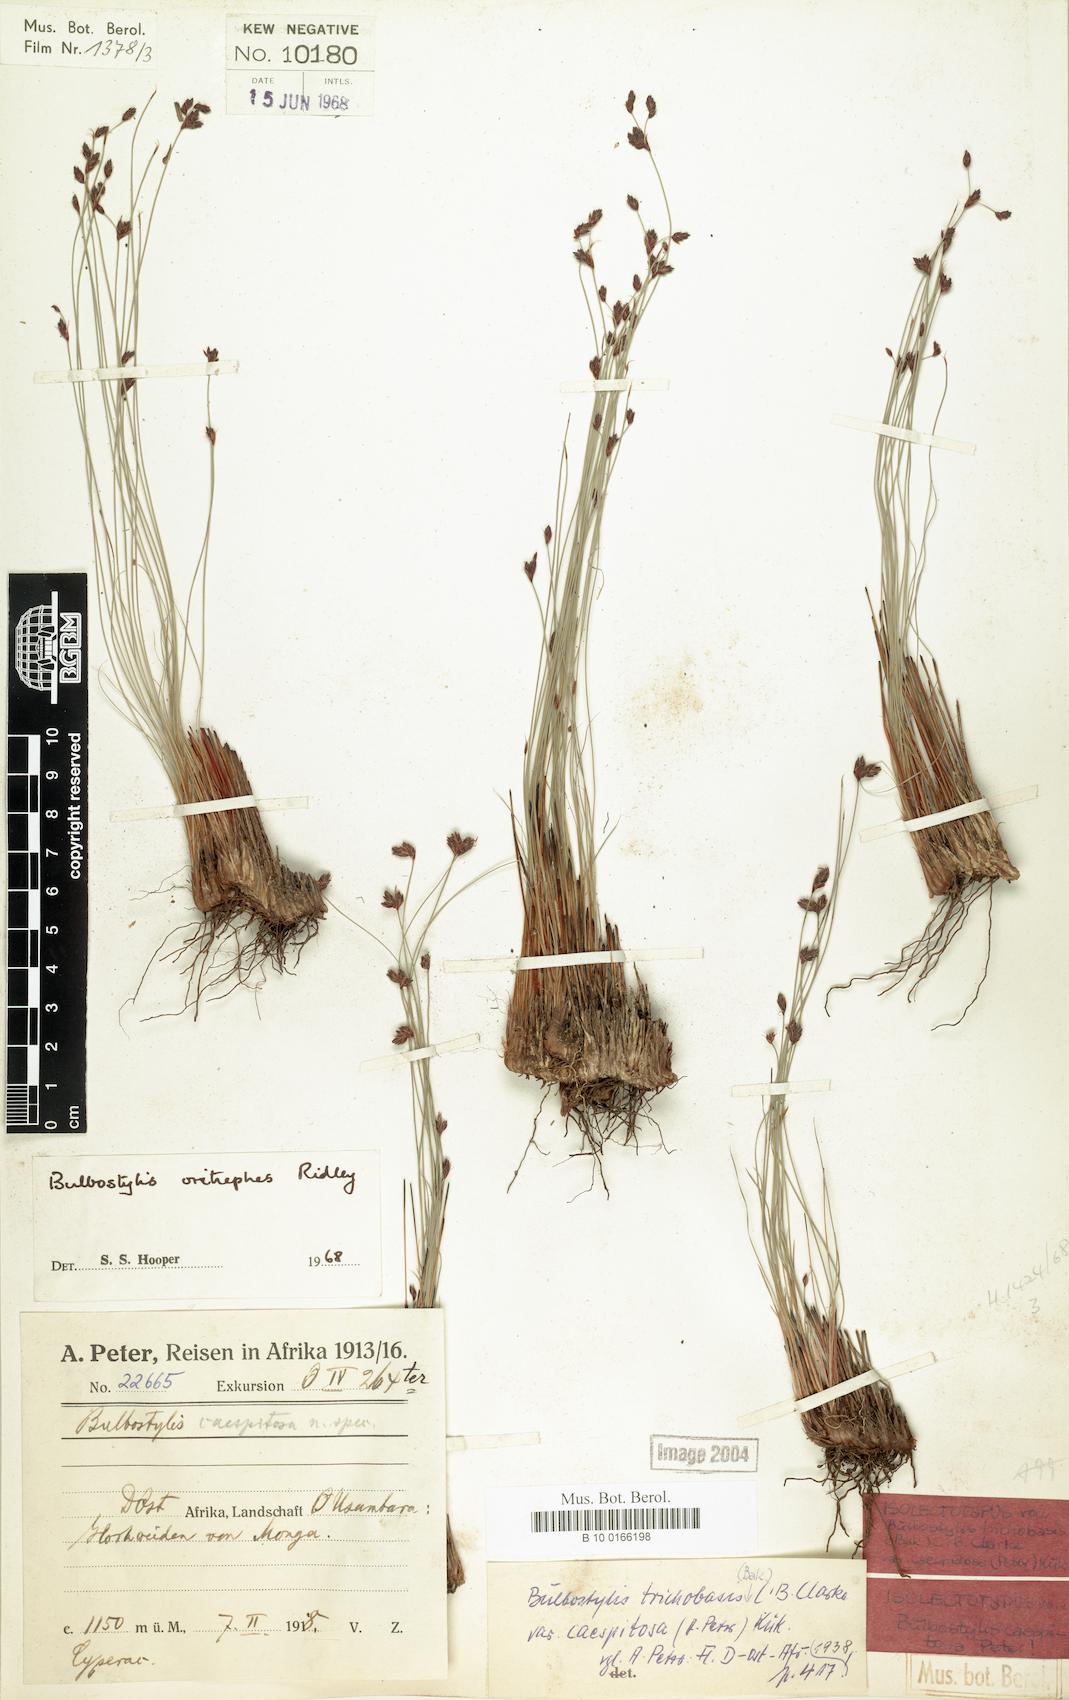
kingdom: Plantae
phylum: Tracheophyta
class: Liliopsida
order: Poales
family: Cyperaceae
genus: Bulbostylis
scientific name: Bulbostylis oritrephes
